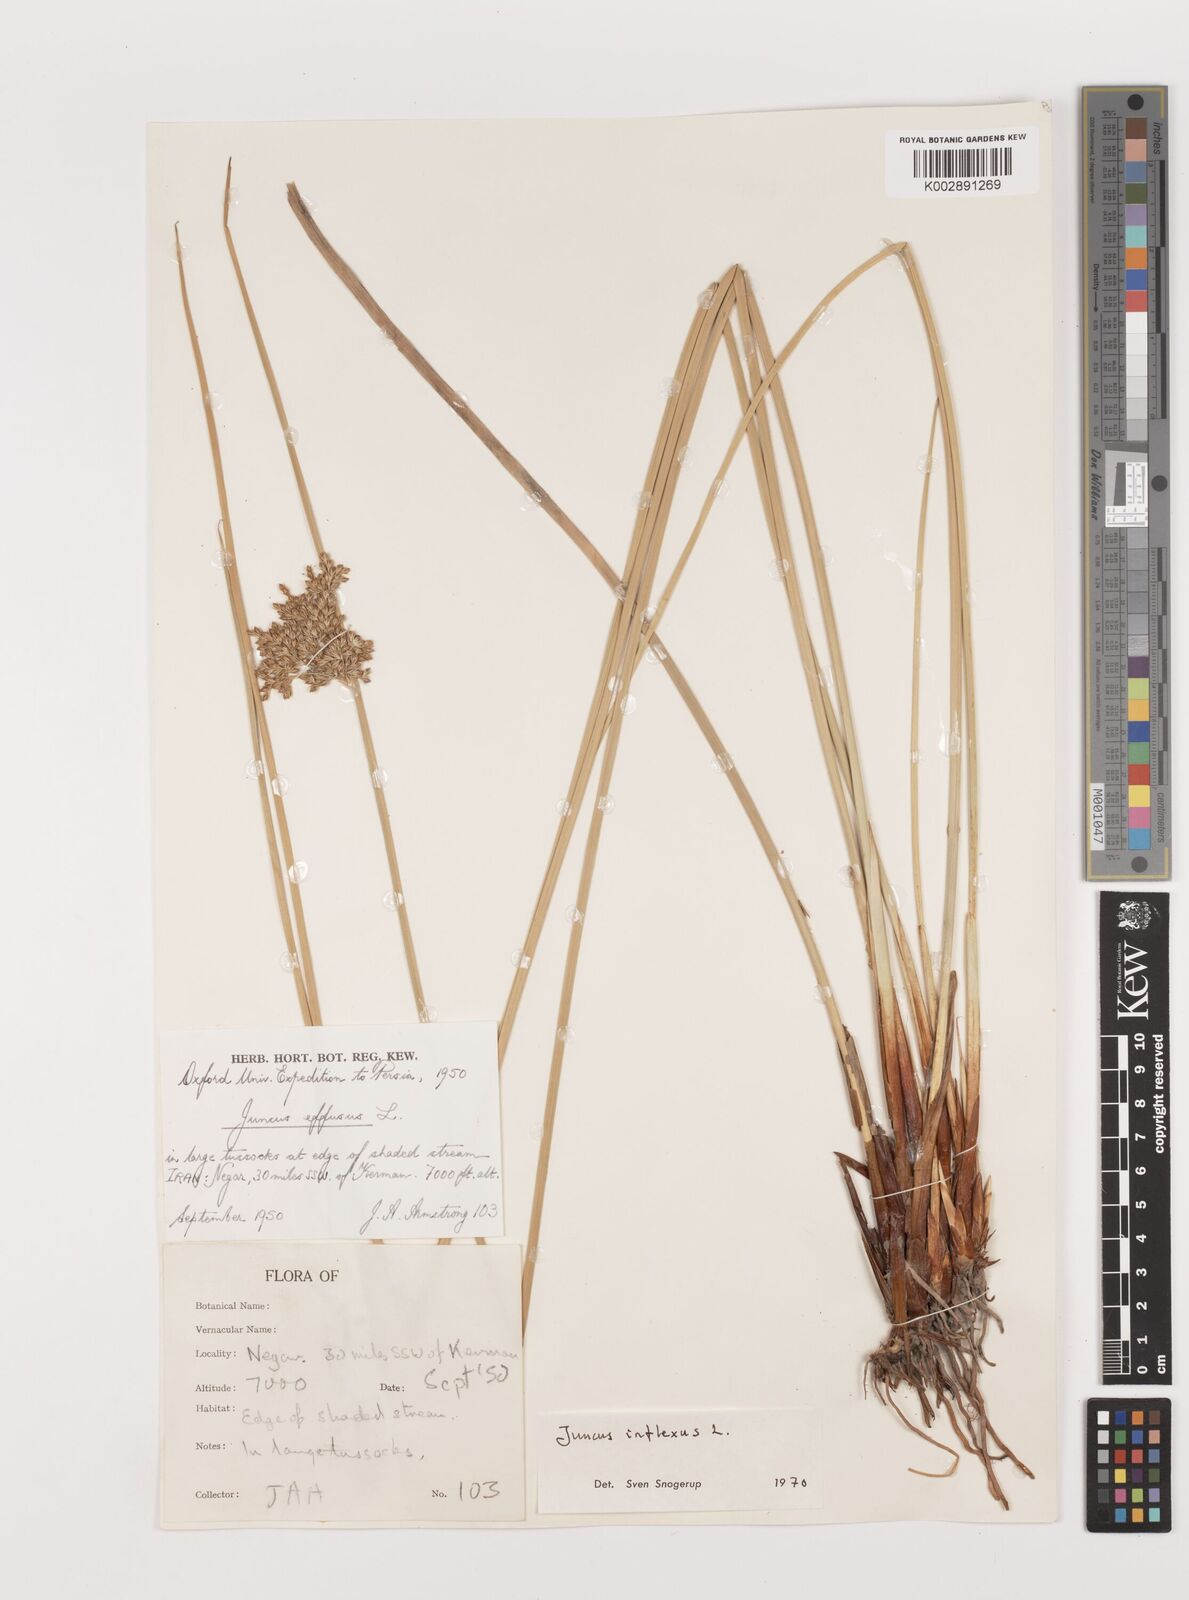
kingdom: Plantae
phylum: Tracheophyta
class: Liliopsida
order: Poales
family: Juncaceae
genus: Juncus
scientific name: Juncus inflexus
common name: Hard rush
